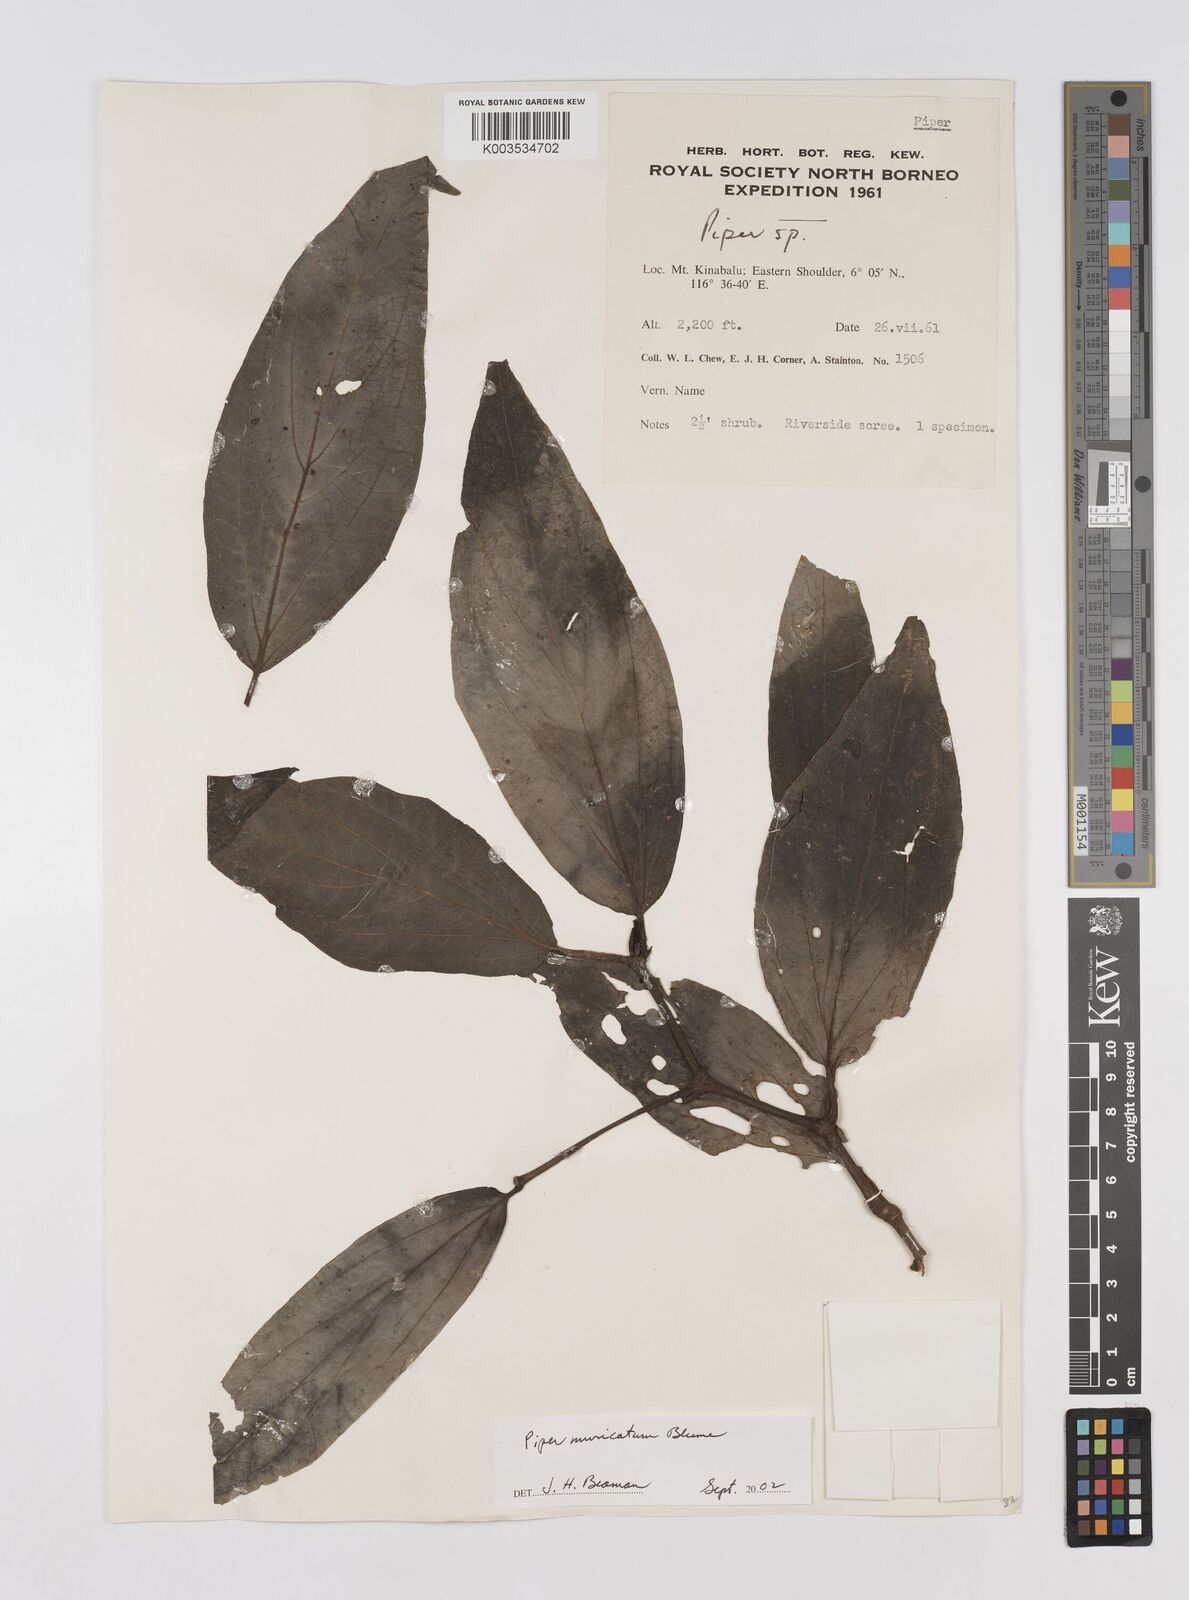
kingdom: Plantae
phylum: Tracheophyta
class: Magnoliopsida
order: Piperales
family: Piperaceae
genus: Piper
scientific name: Piper muricatum
